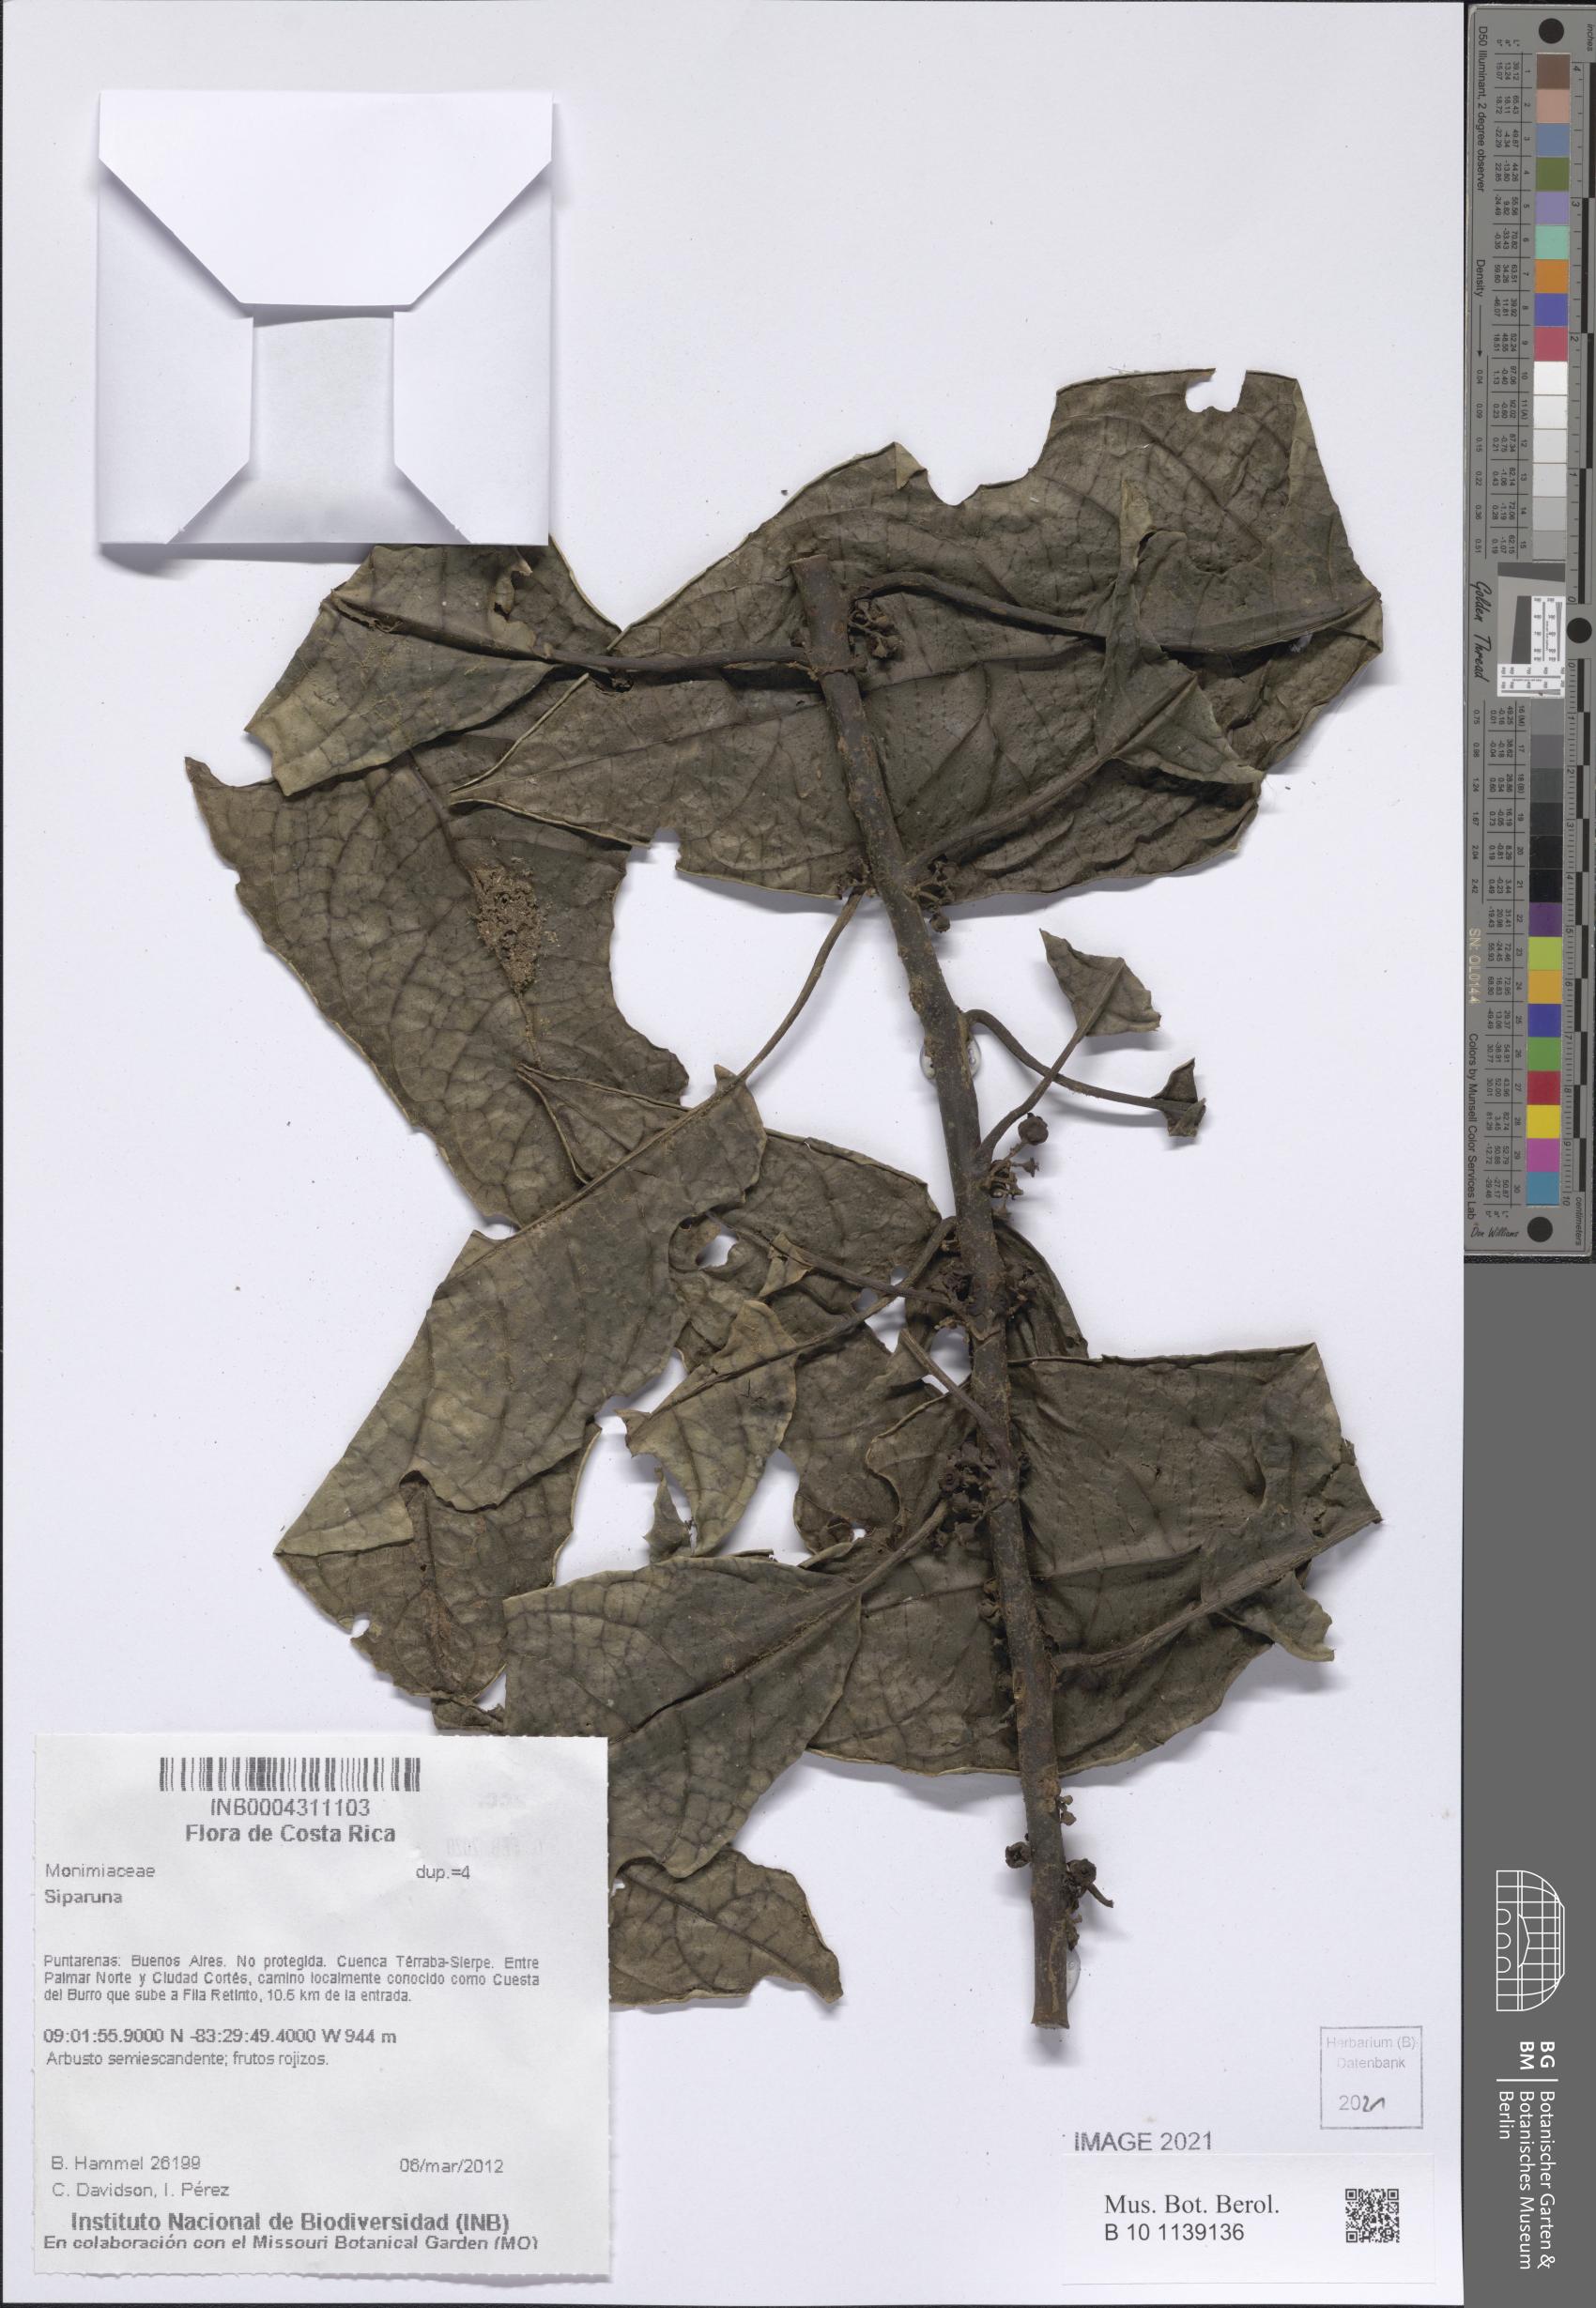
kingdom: Plantae
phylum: Tracheophyta
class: Magnoliopsida
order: Laurales
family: Siparunaceae
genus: Siparuna
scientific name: Siparuna
